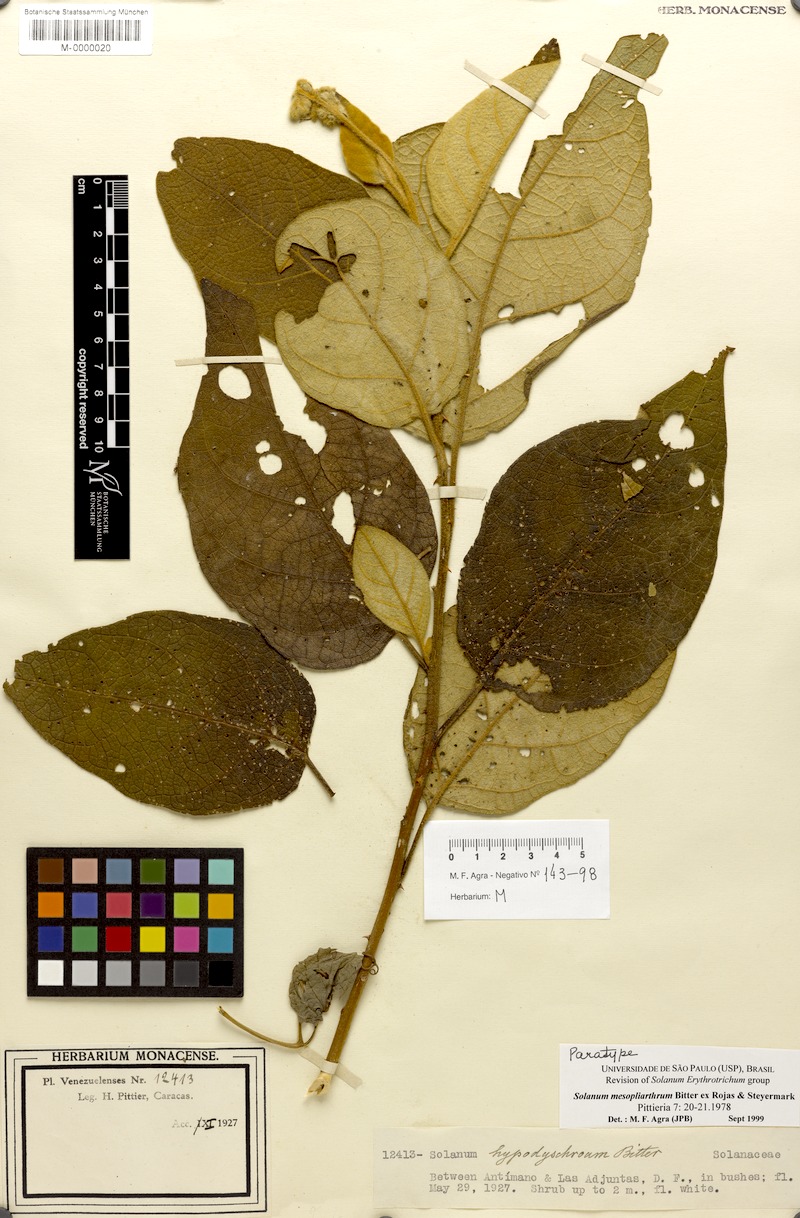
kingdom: Plantae
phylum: Tracheophyta
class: Magnoliopsida
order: Solanales
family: Solanaceae
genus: Solanum
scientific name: Solanum velutinum
